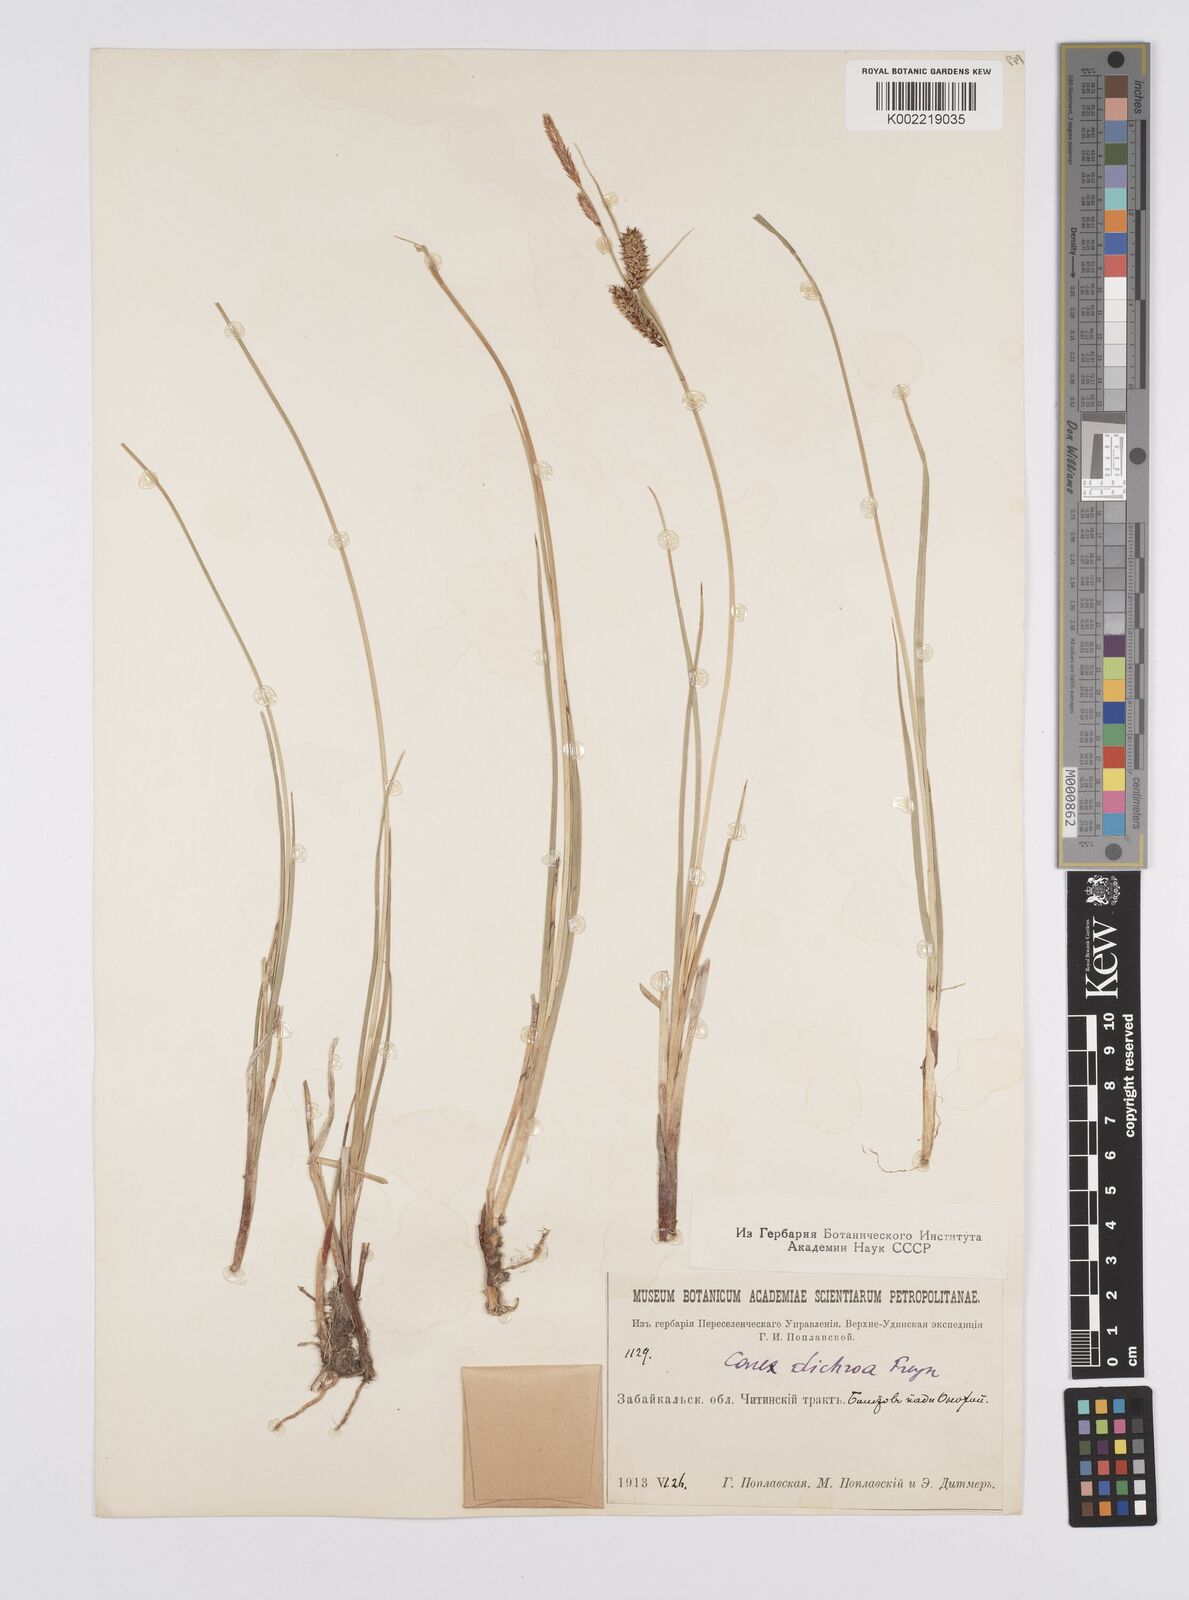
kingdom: Plantae
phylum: Tracheophyta
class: Liliopsida
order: Poales
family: Cyperaceae
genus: Carex
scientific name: Carex
